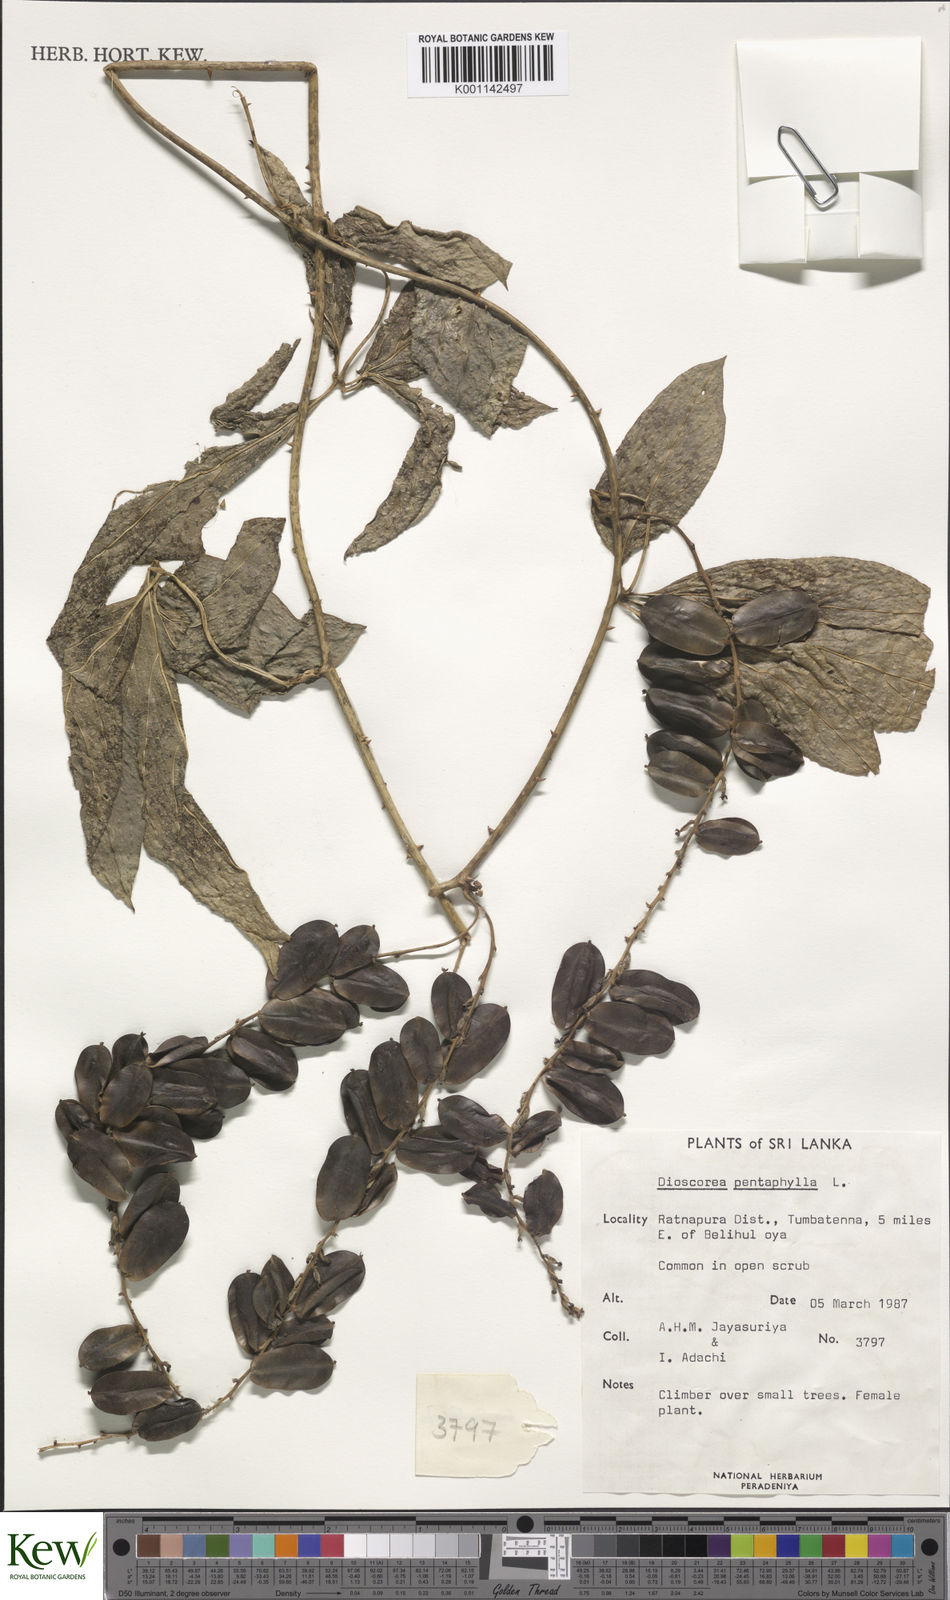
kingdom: Plantae
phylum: Tracheophyta
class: Liliopsida
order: Dioscoreales
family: Dioscoreaceae
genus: Dioscorea
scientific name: Dioscorea pentaphylla
